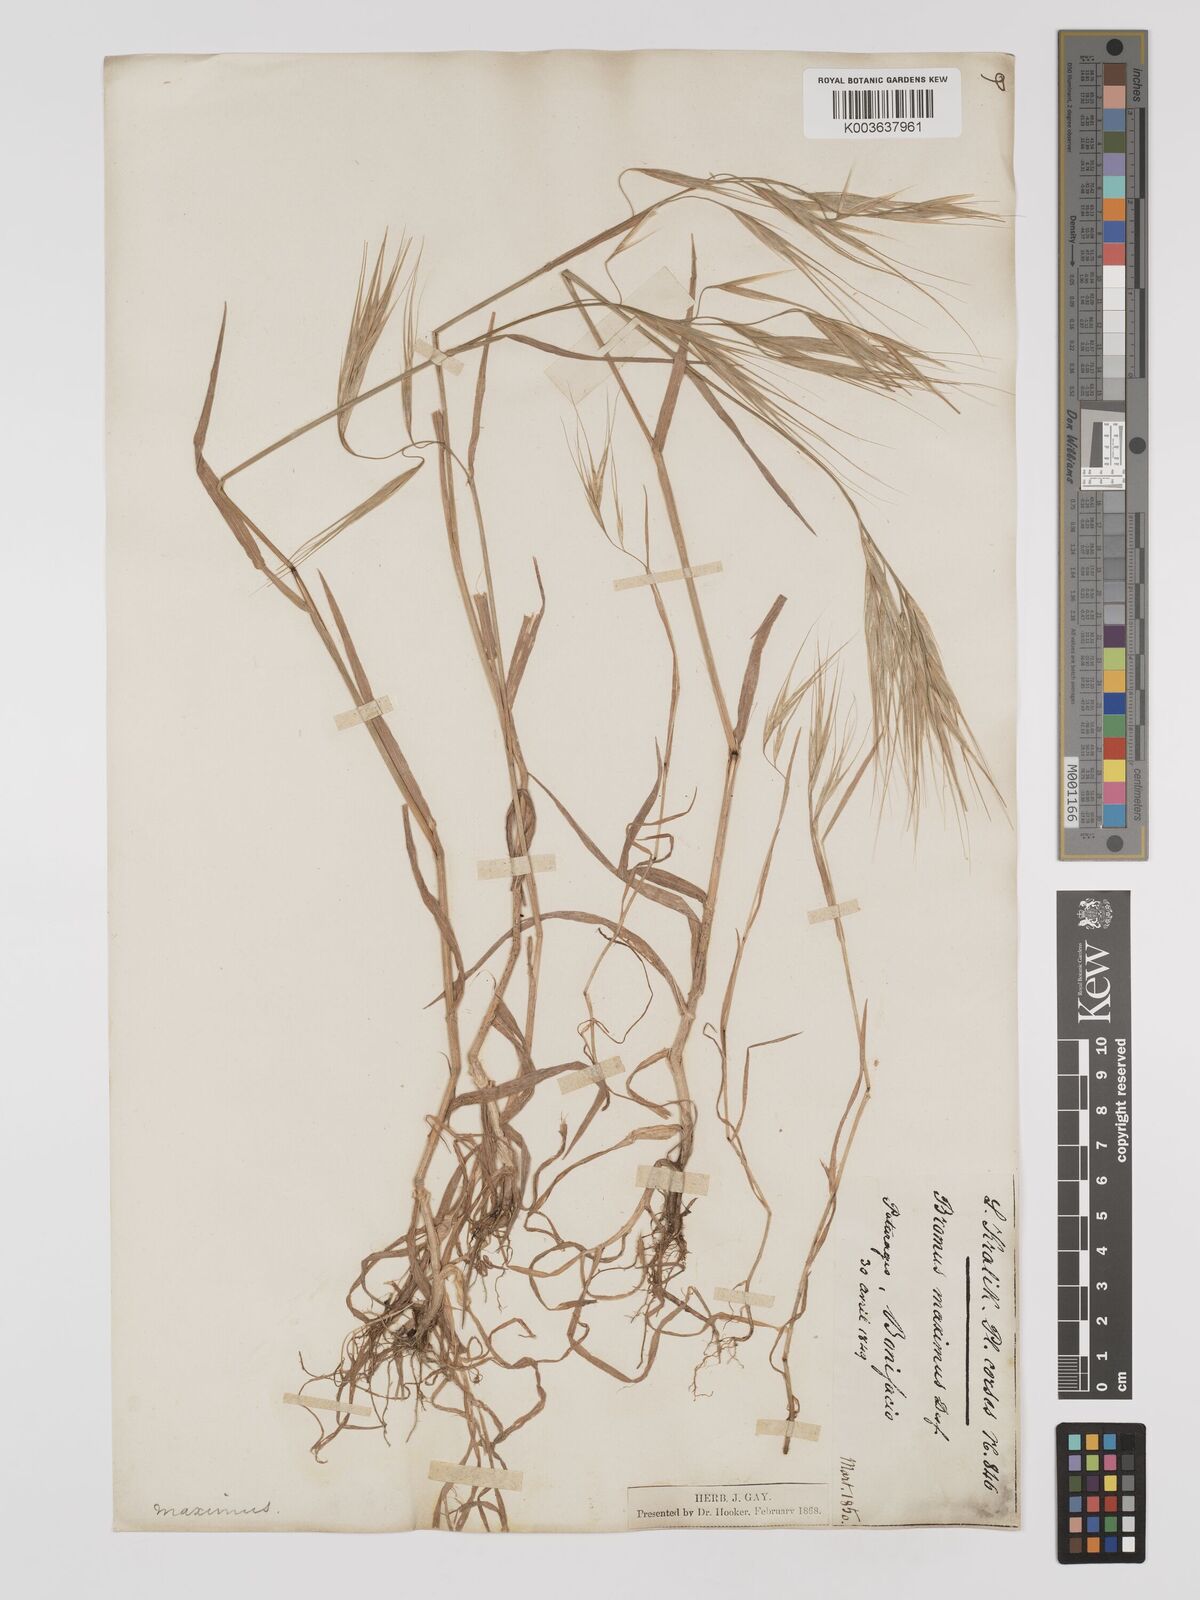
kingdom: Plantae
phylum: Tracheophyta
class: Liliopsida
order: Poales
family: Poaceae
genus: Bromus
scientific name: Bromus
